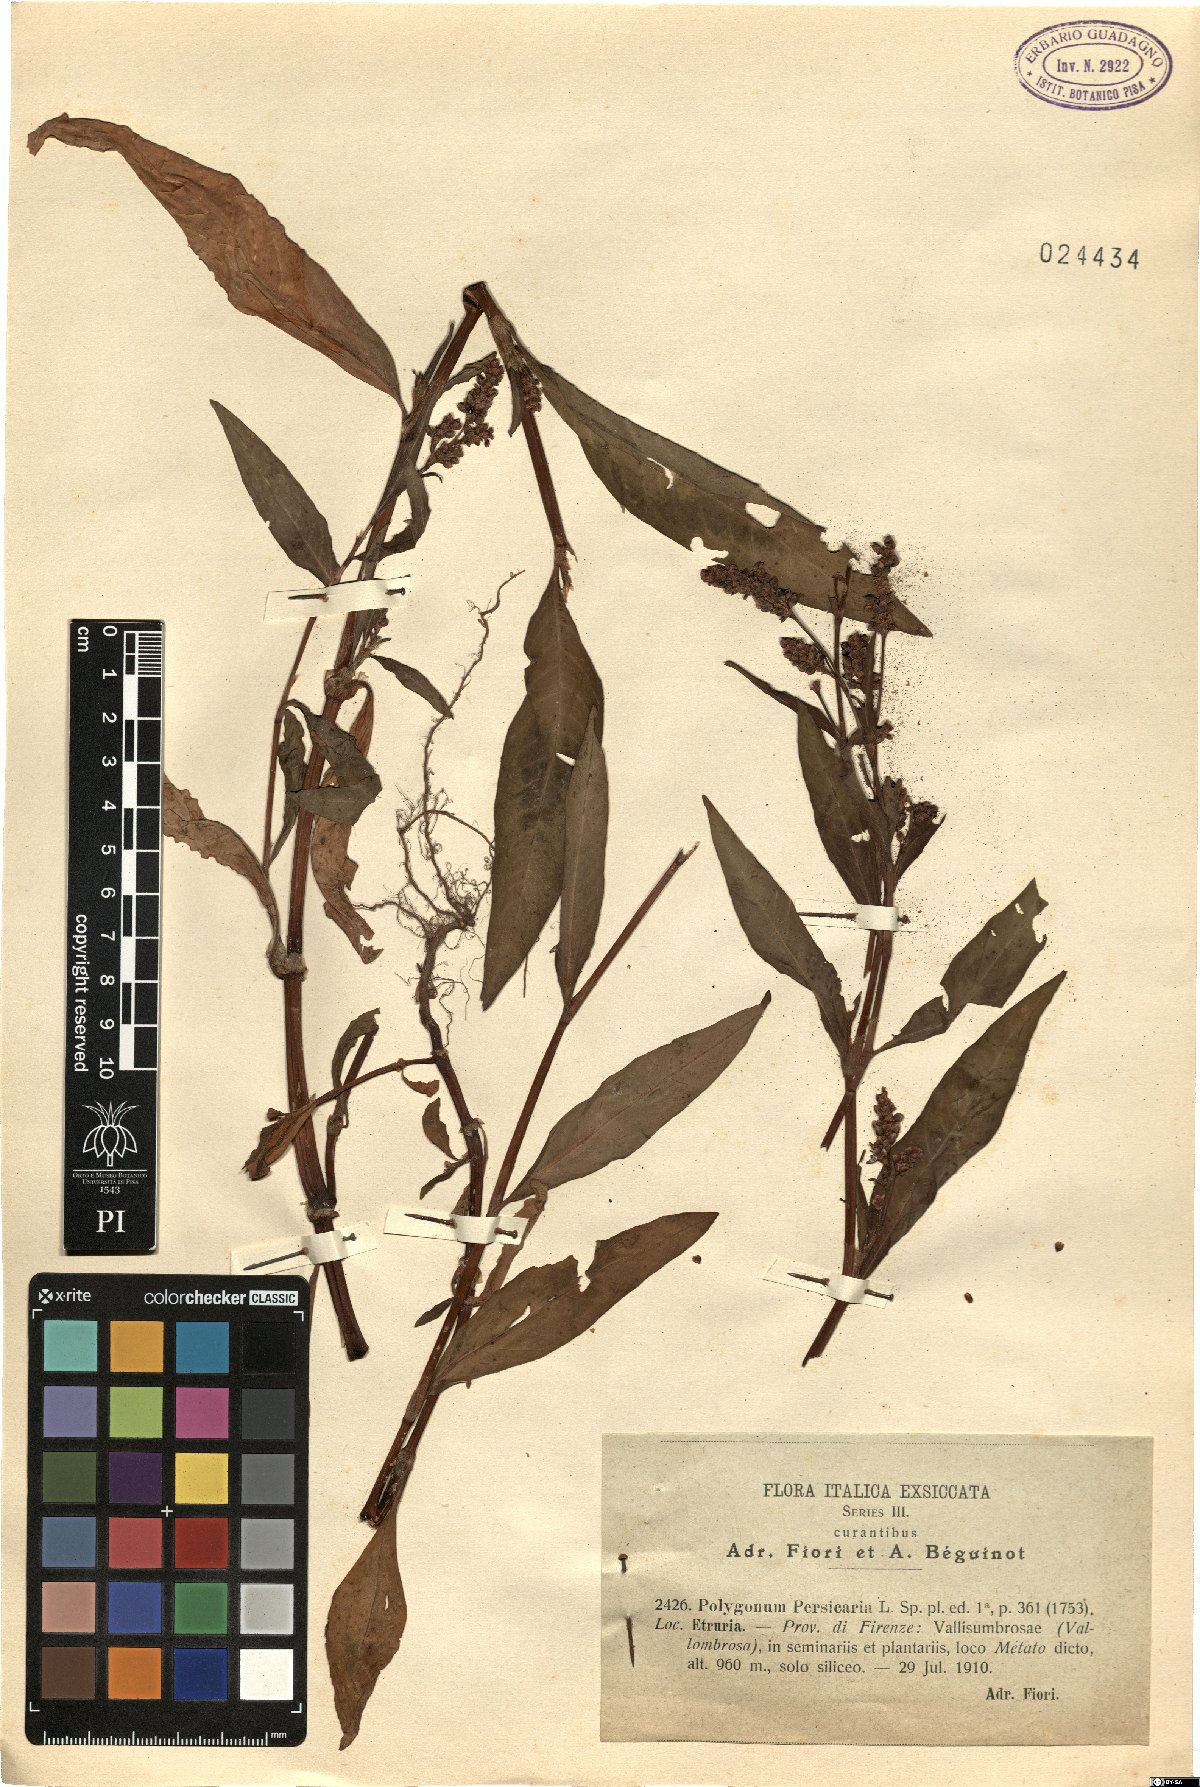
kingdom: Plantae
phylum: Tracheophyta
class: Magnoliopsida
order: Caryophyllales
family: Polygonaceae
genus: Persicaria
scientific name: Persicaria maculosa
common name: Redshank
